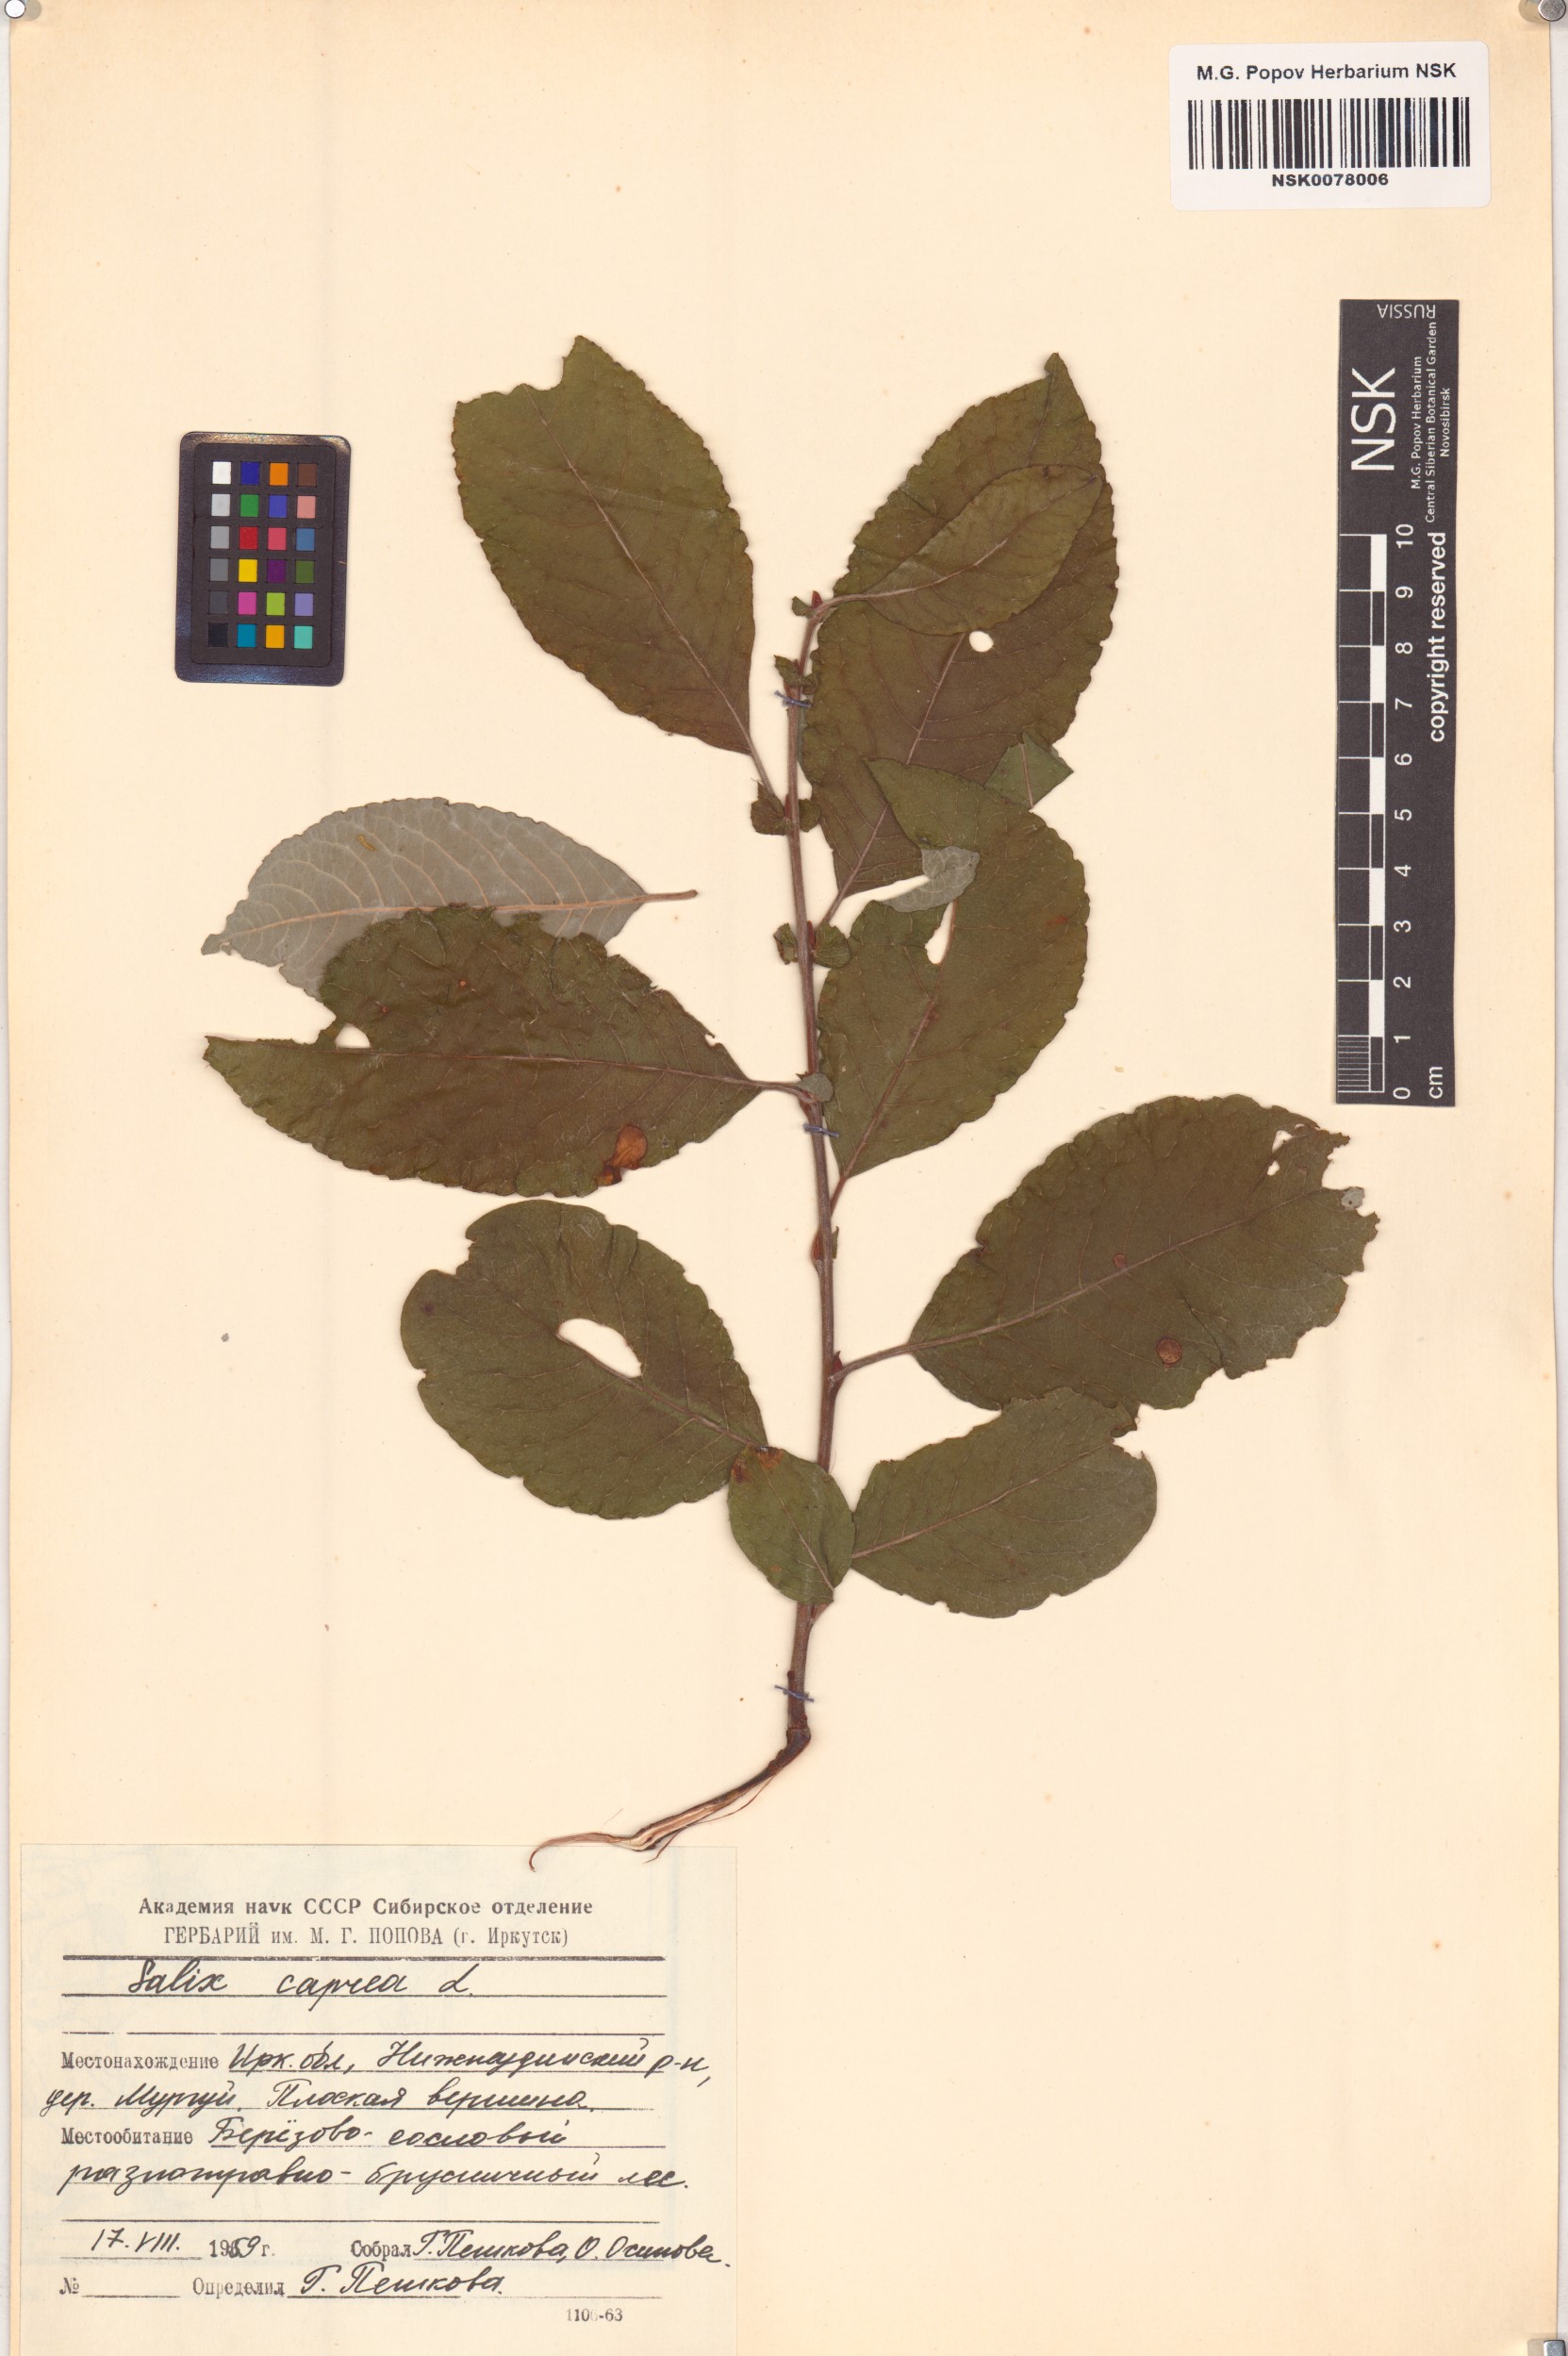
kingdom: Plantae
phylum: Tracheophyta
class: Magnoliopsida
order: Malpighiales
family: Salicaceae
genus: Salix
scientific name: Salix caprea
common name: Goat willow
